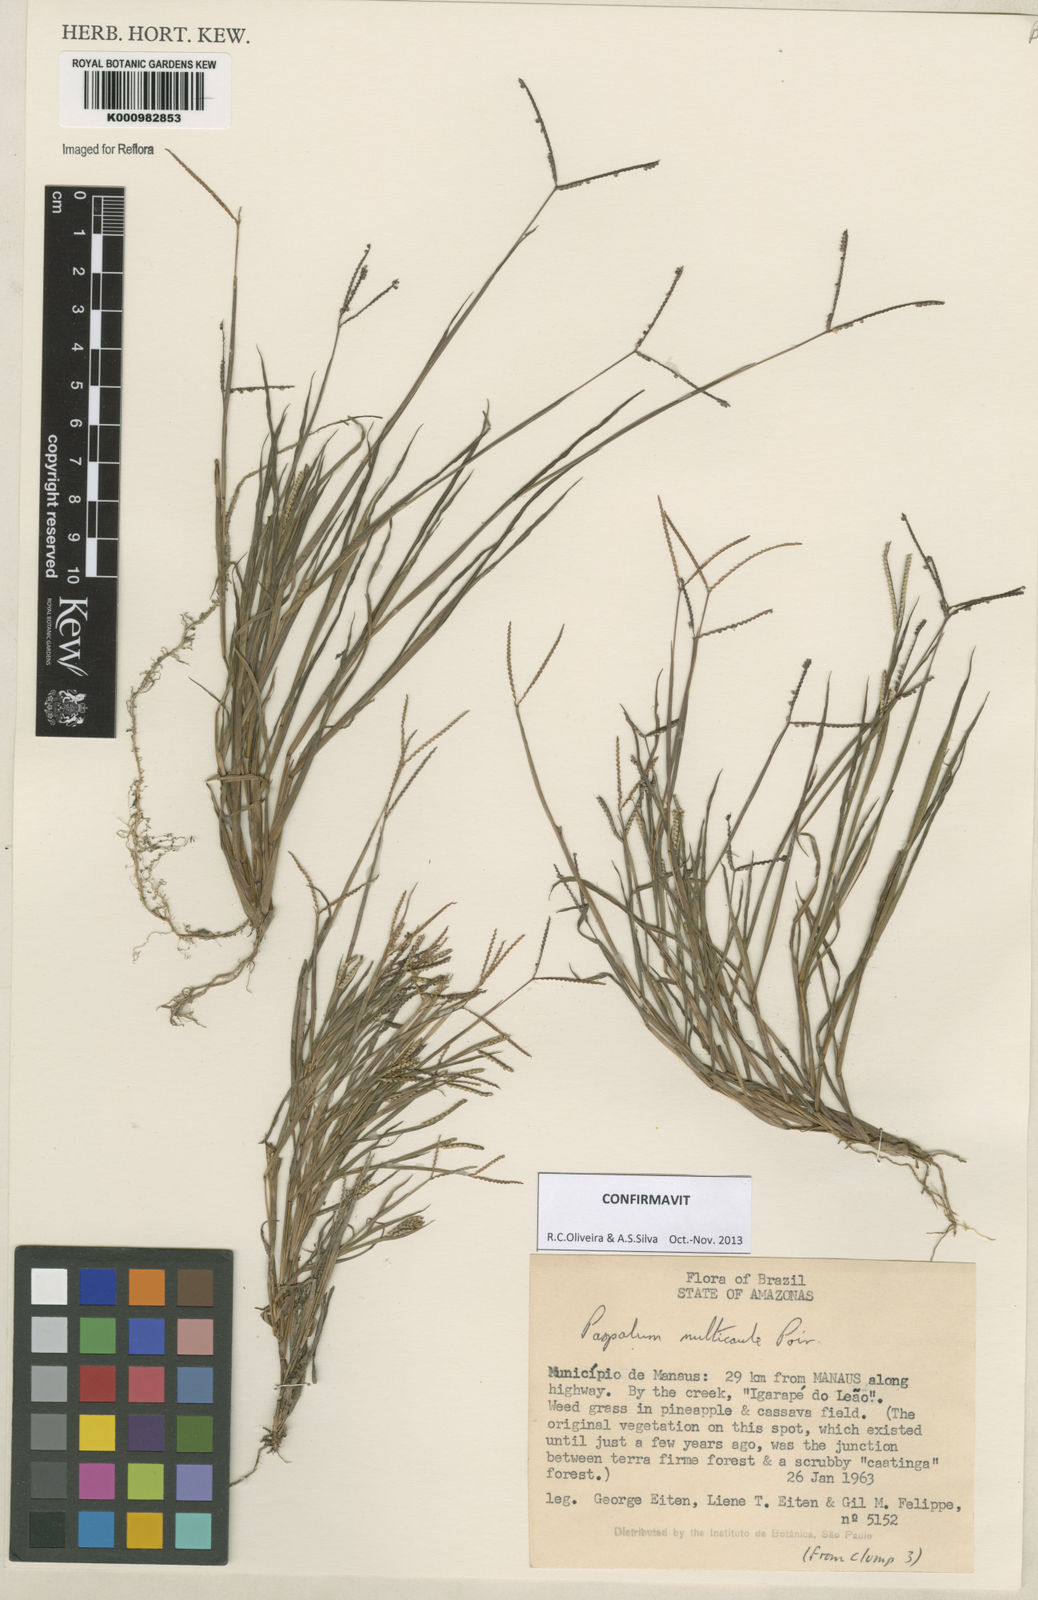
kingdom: Plantae
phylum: Tracheophyta
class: Liliopsida
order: Poales
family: Poaceae
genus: Paspalum
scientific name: Paspalum multicaule
